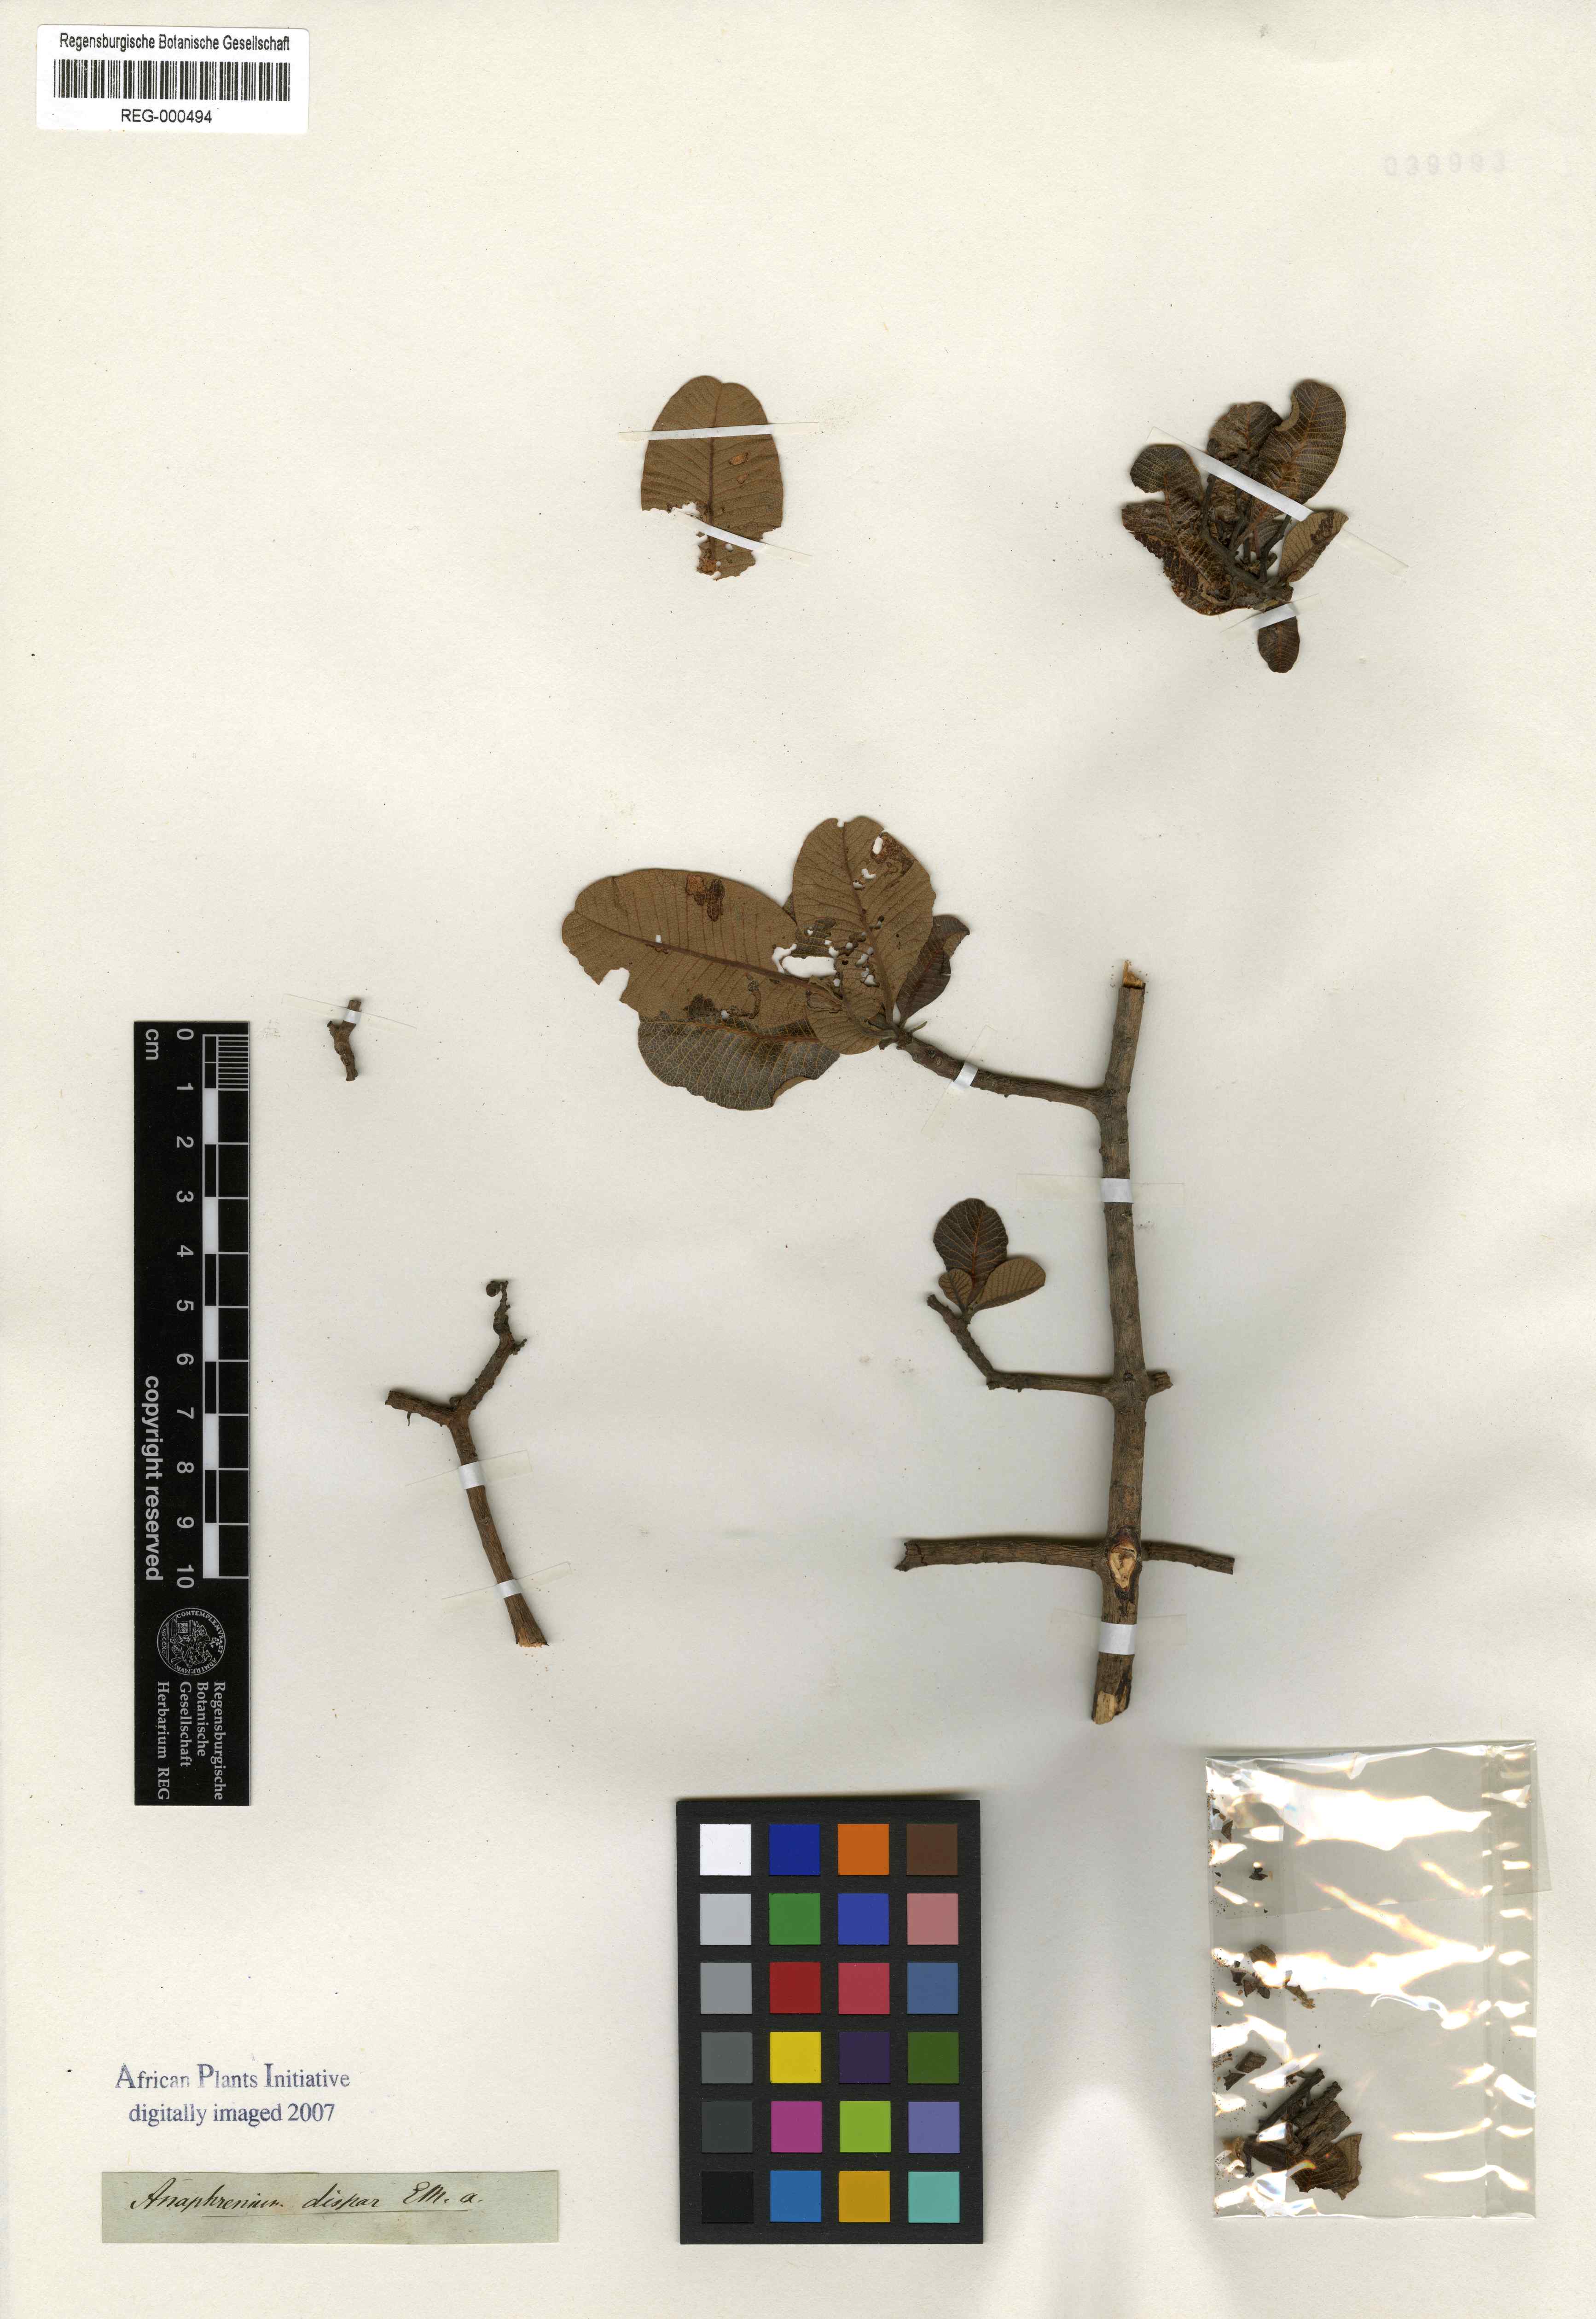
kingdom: Plantae
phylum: Tracheophyta
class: Magnoliopsida
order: Sapindales
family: Anacardiaceae
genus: Ozoroa
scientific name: Ozoroa dispar
